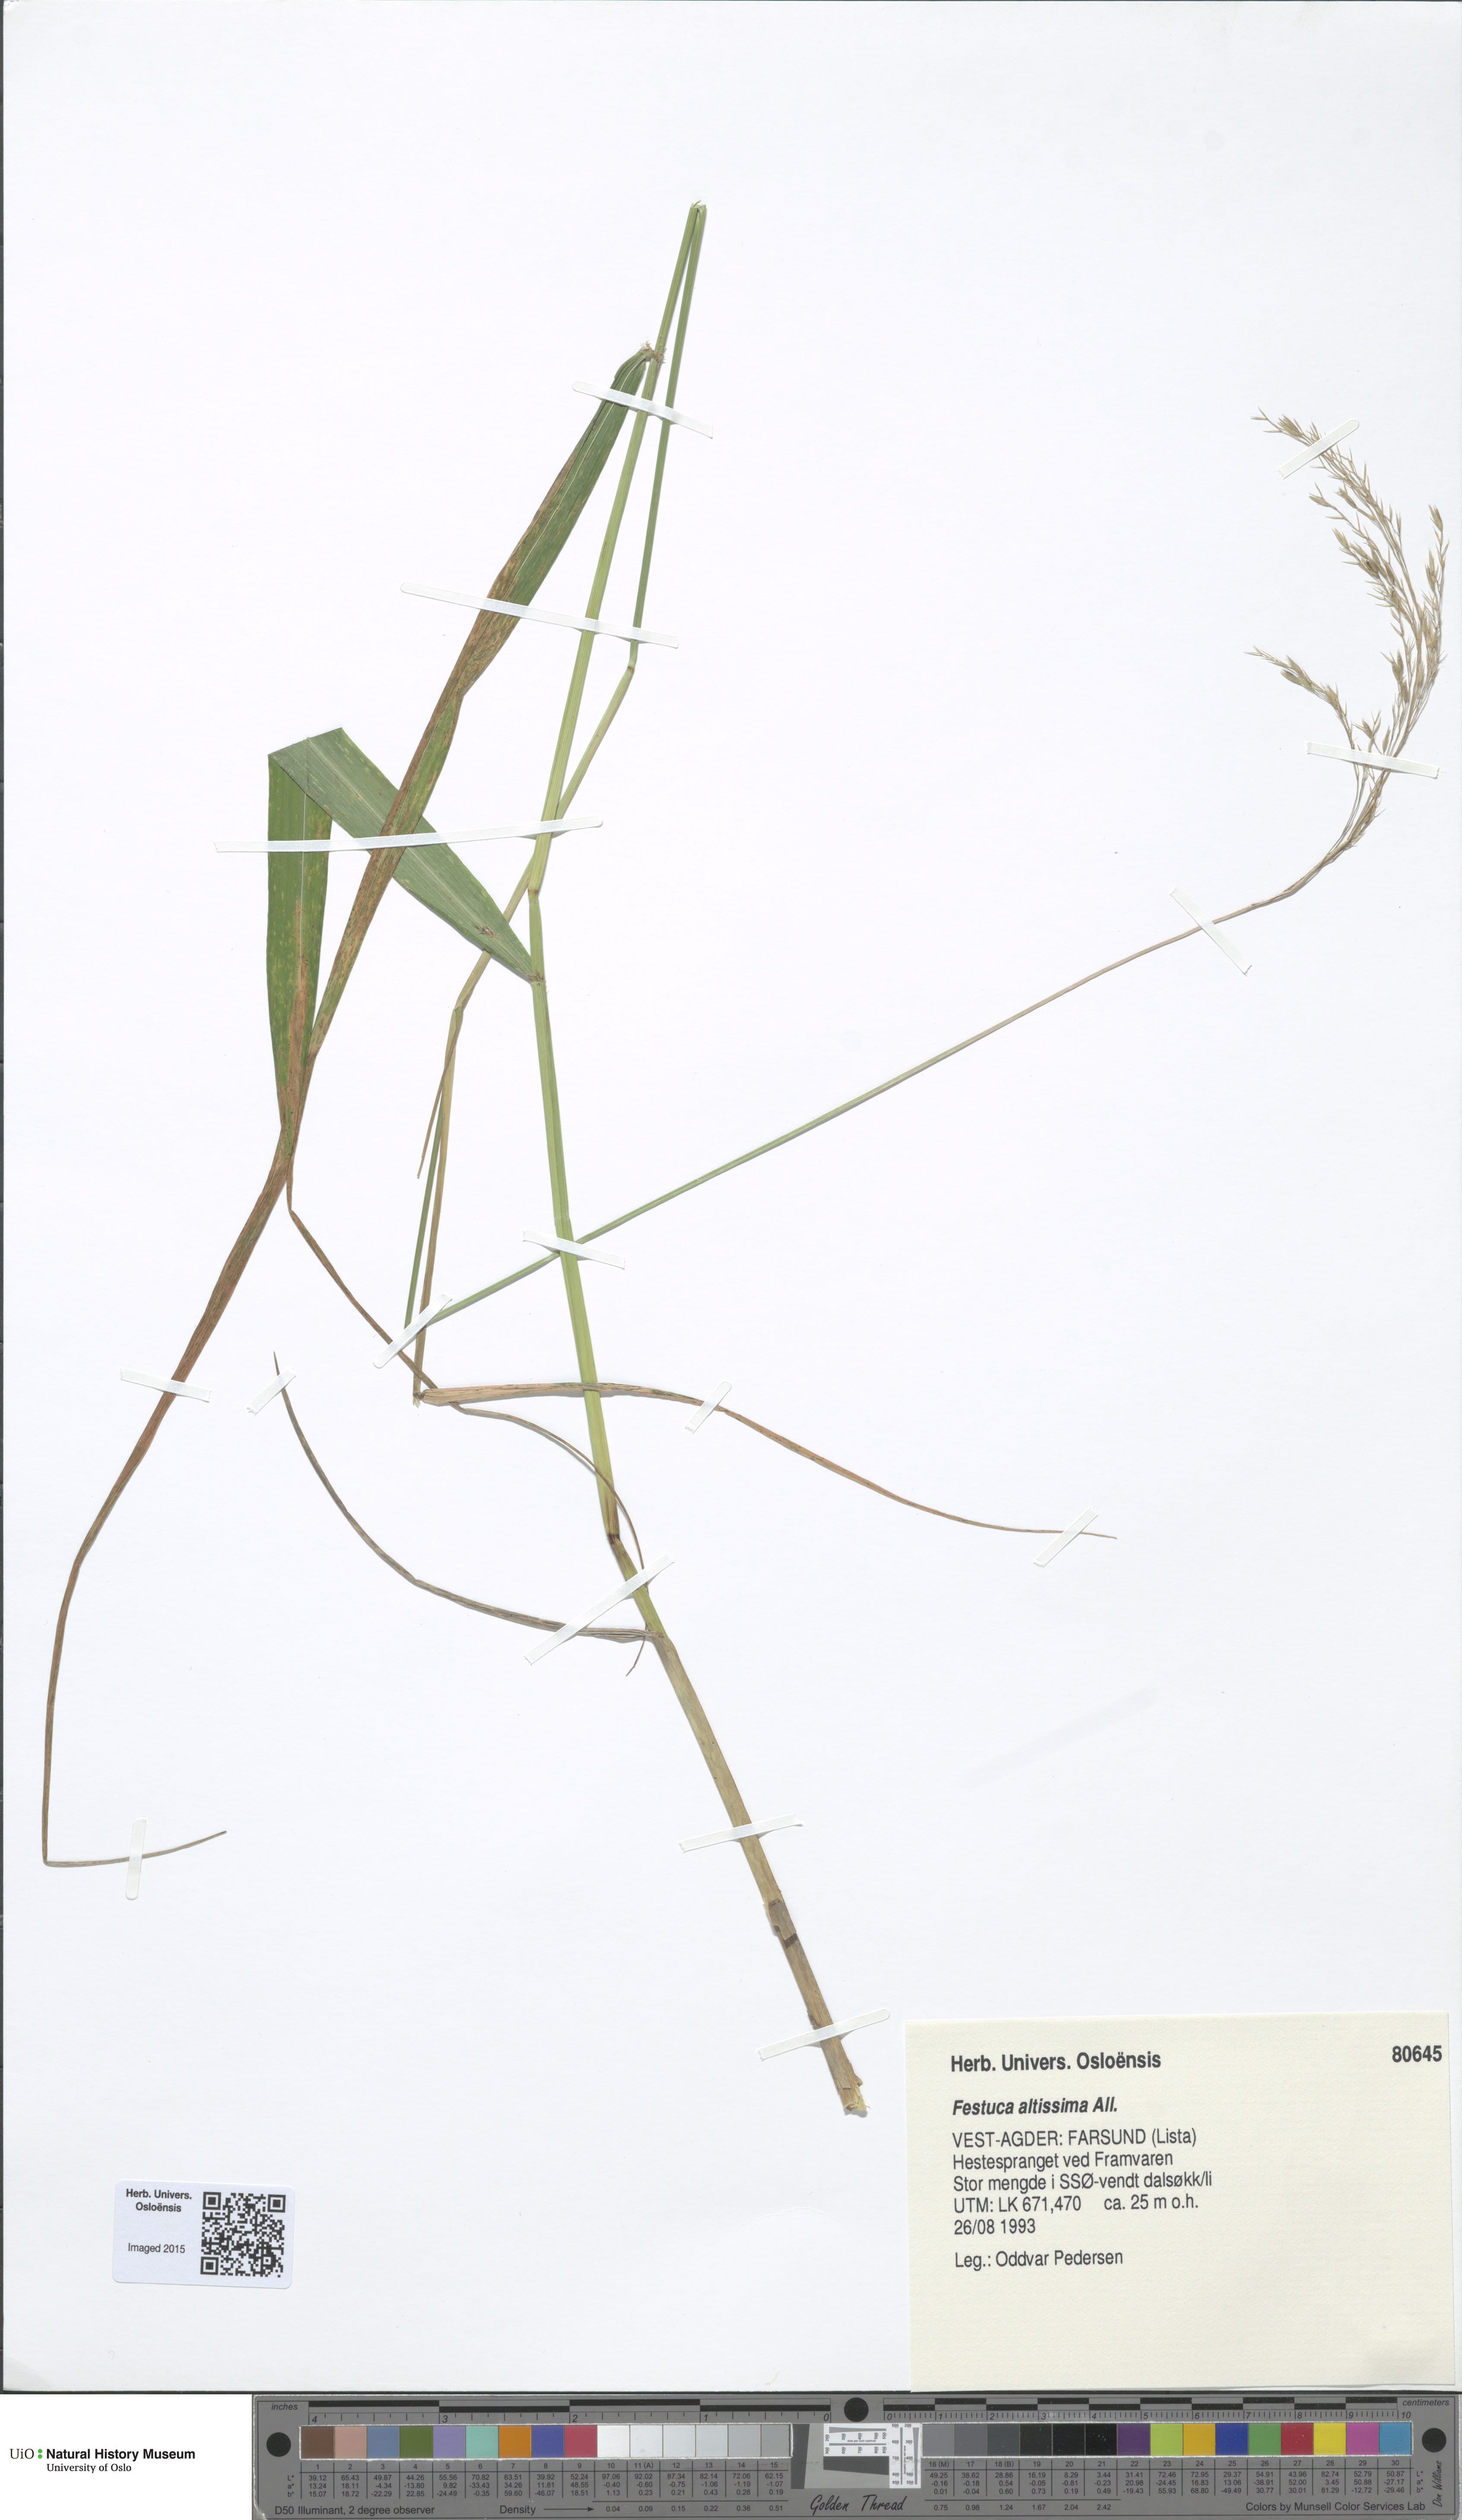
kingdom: Plantae
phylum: Tracheophyta
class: Liliopsida
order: Poales
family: Poaceae
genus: Festuca
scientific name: Festuca altissima
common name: Wood fescue
